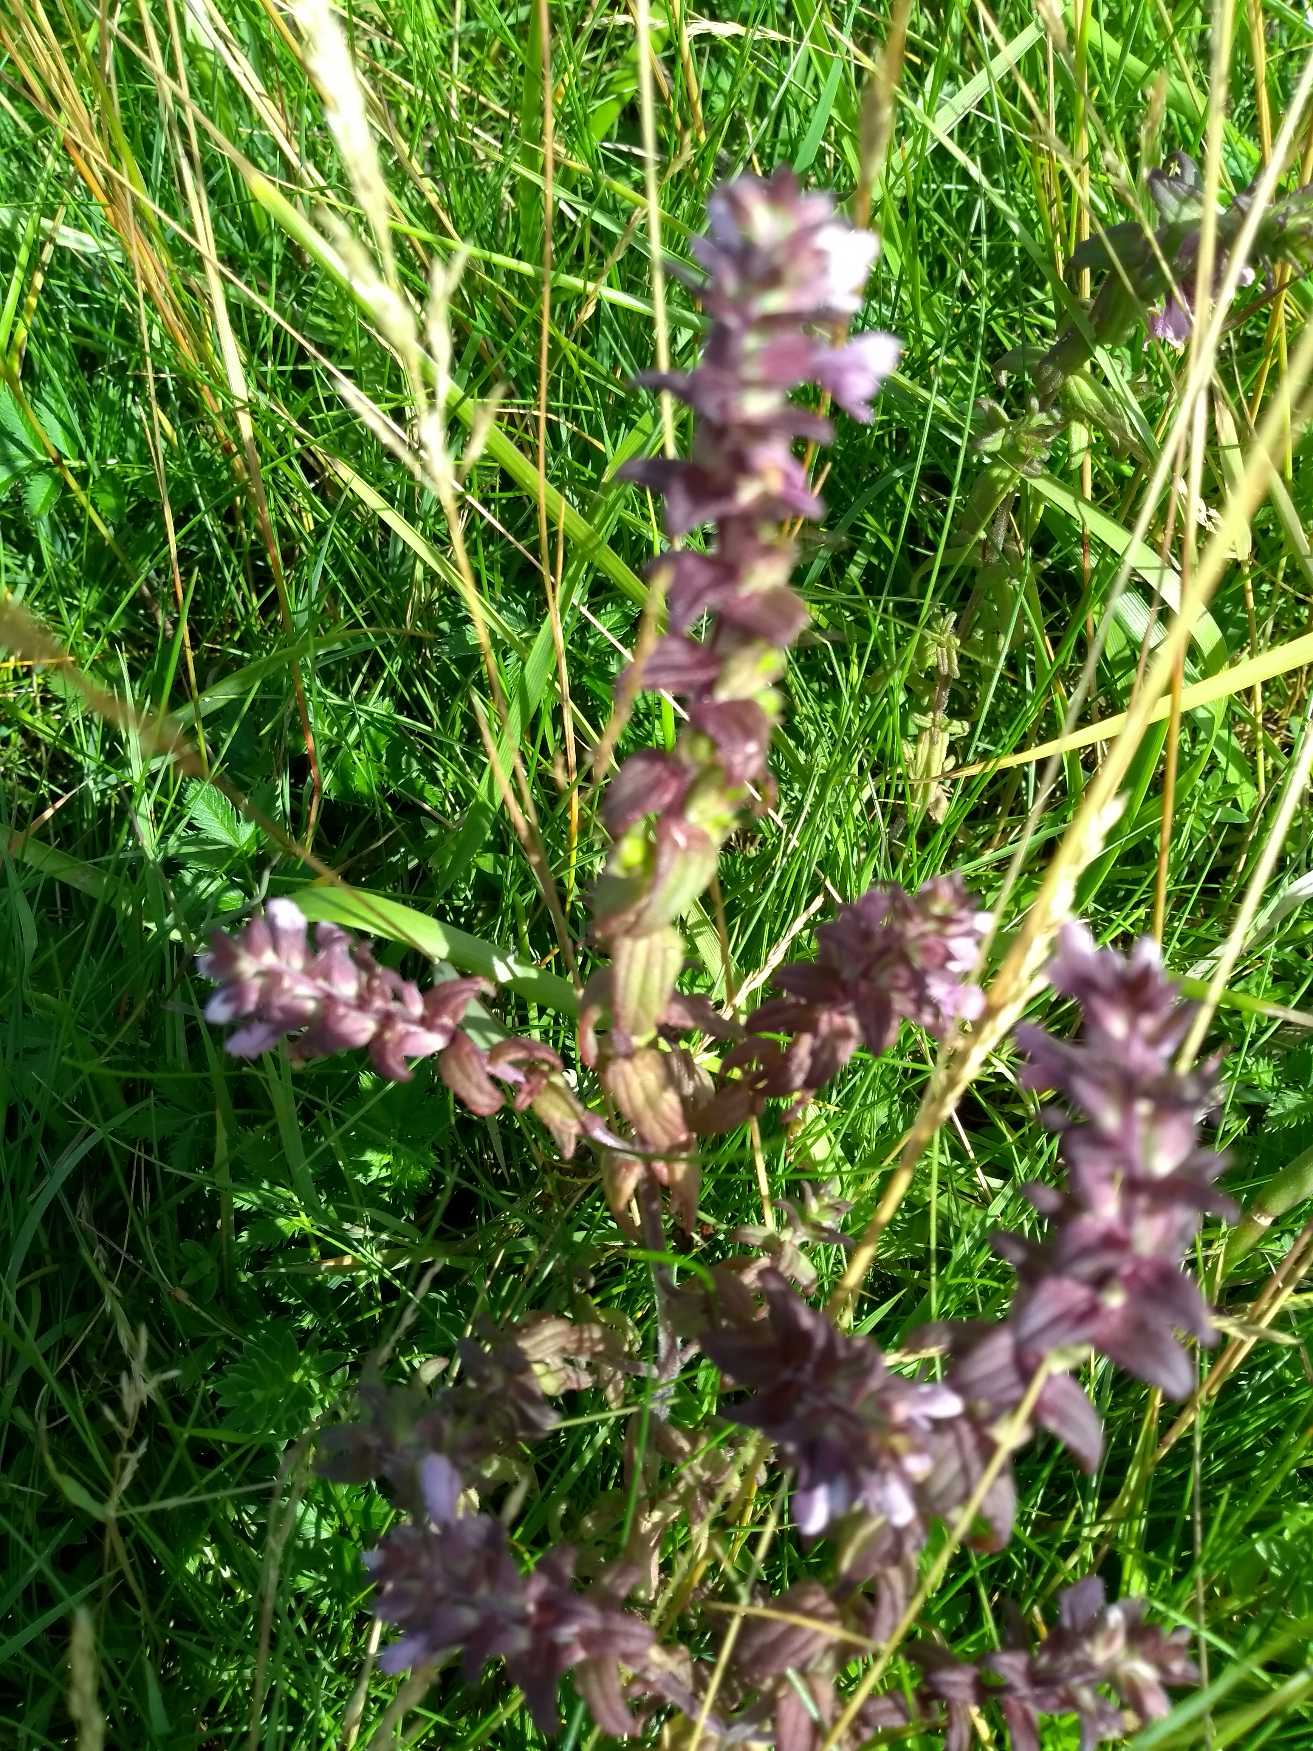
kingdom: Plantae
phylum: Tracheophyta
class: Magnoliopsida
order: Lamiales
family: Orobanchaceae
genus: Odontites
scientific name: Odontites
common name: Rødtopslægten
